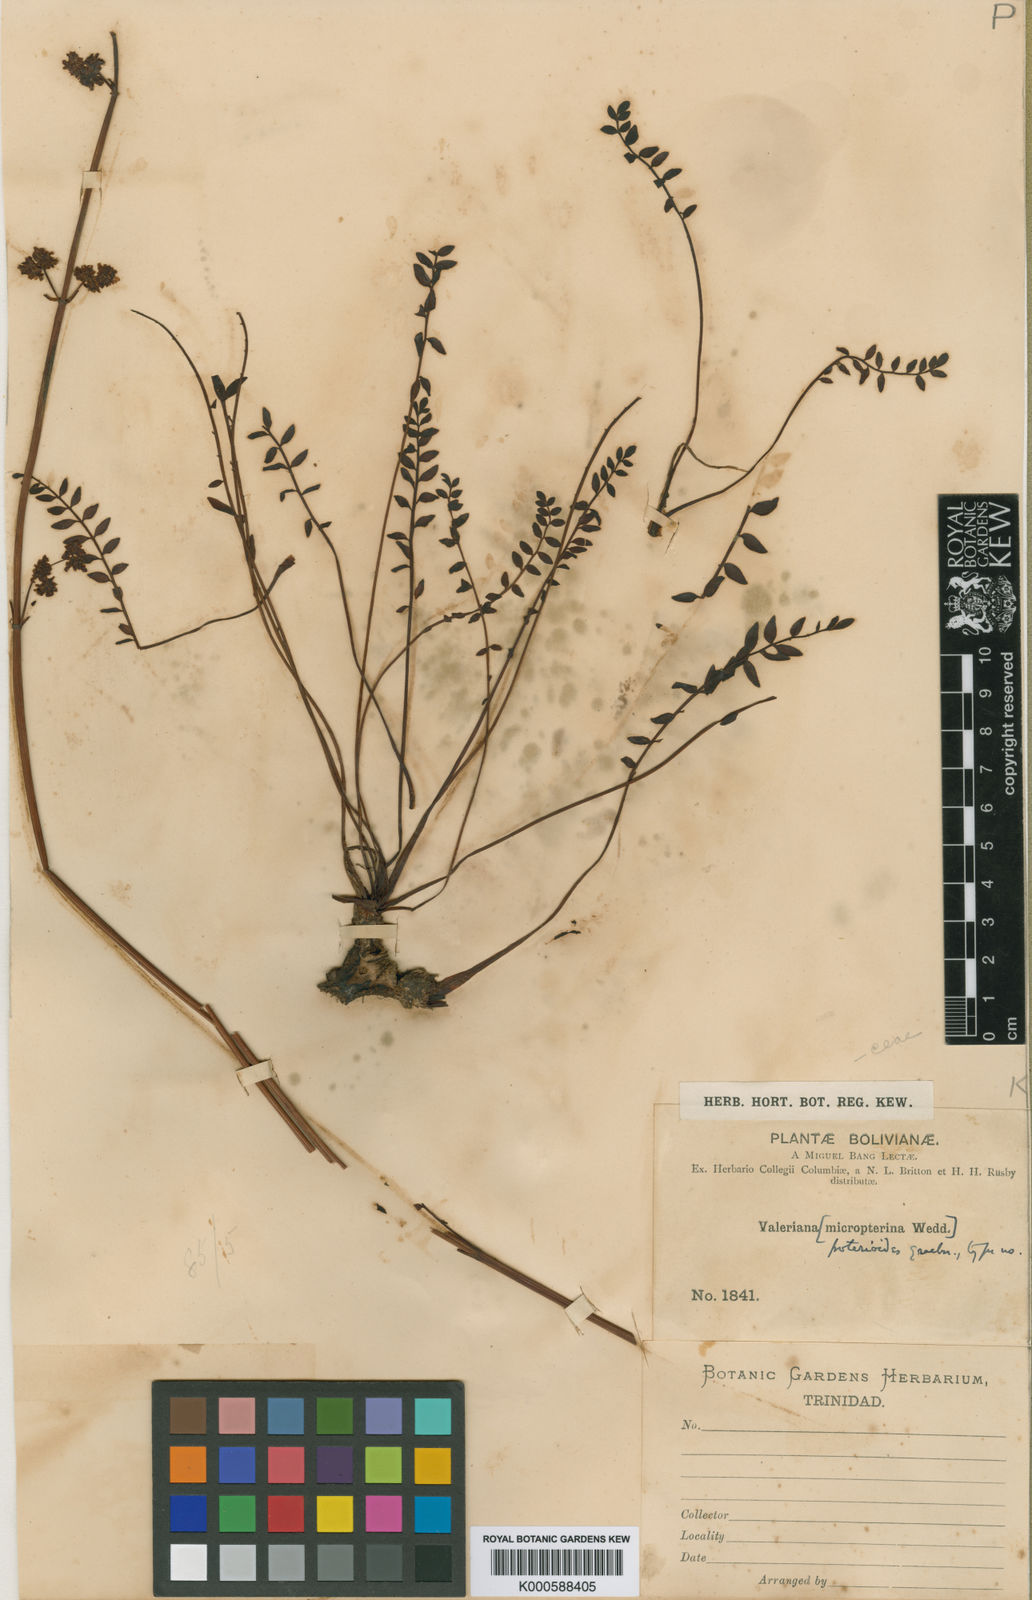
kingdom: Plantae
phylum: Tracheophyta
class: Magnoliopsida
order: Dipsacales
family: Caprifoliaceae
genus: Valeriana
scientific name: Valeriana micropterina
